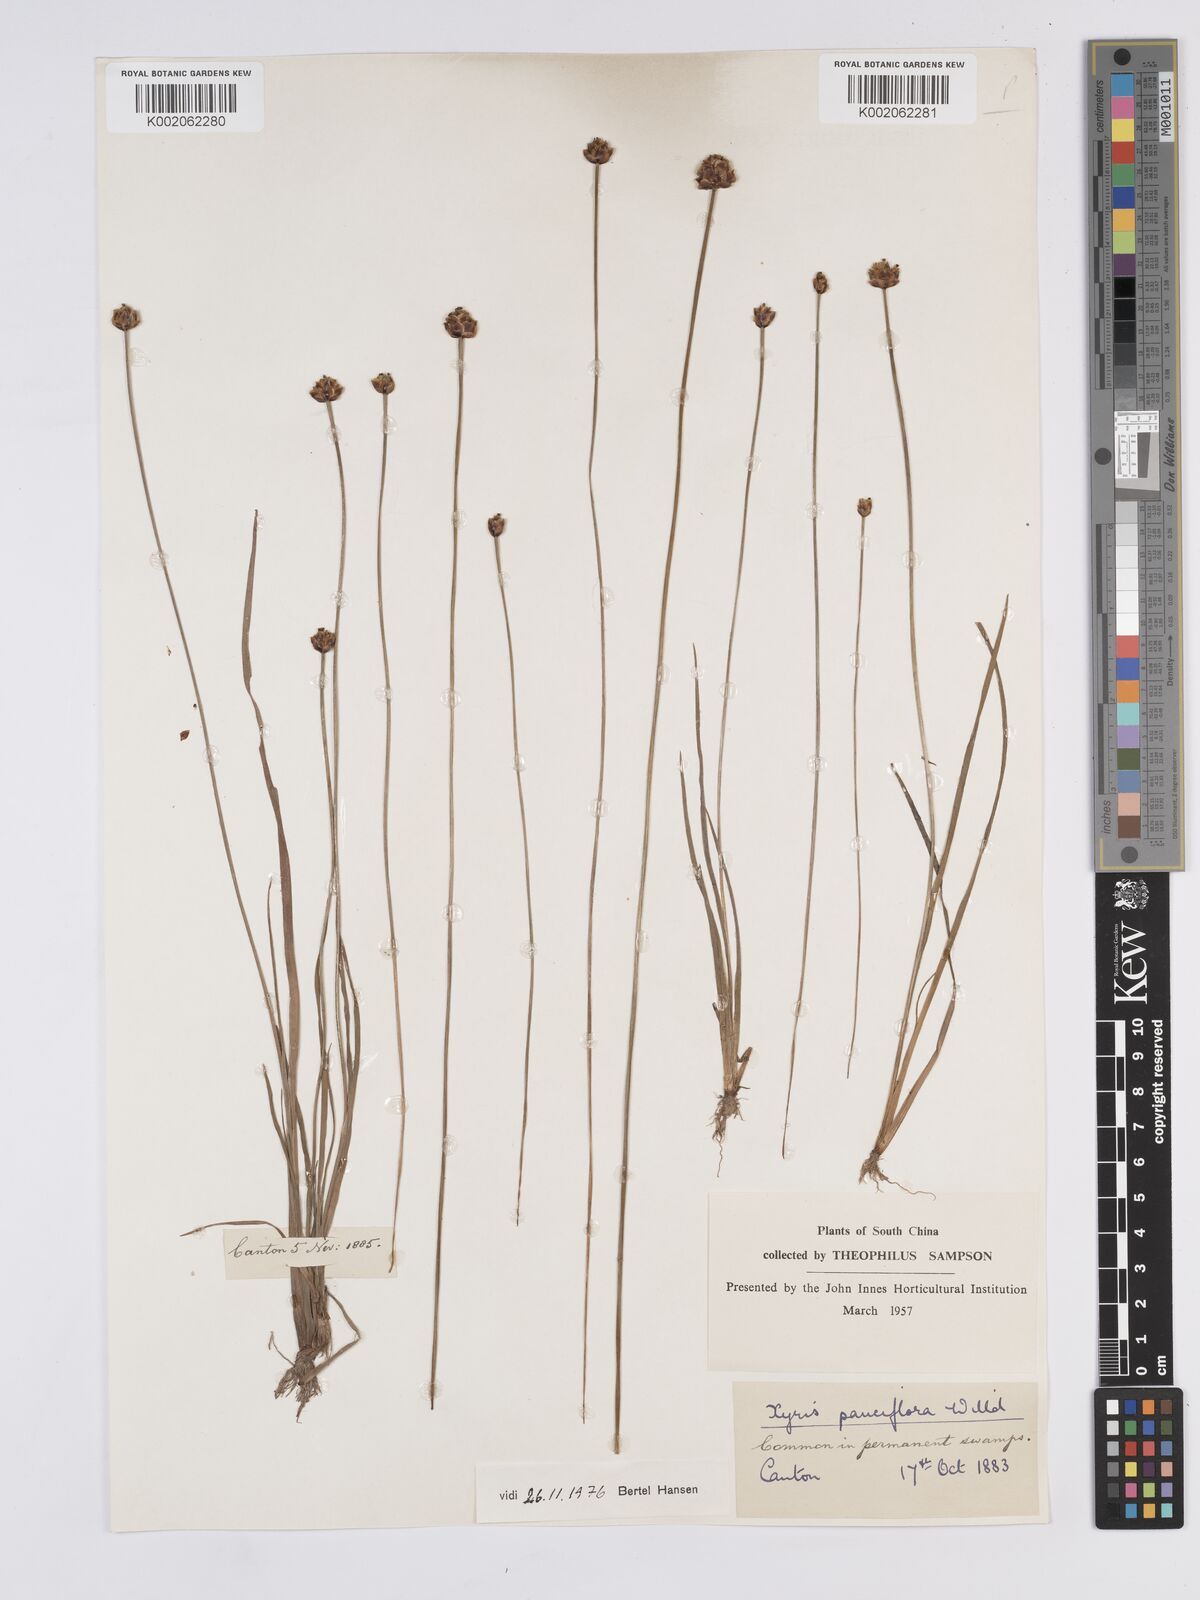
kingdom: Plantae
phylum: Tracheophyta
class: Liliopsida
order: Poales
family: Xyridaceae
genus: Xyris
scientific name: Xyris pauciflora
